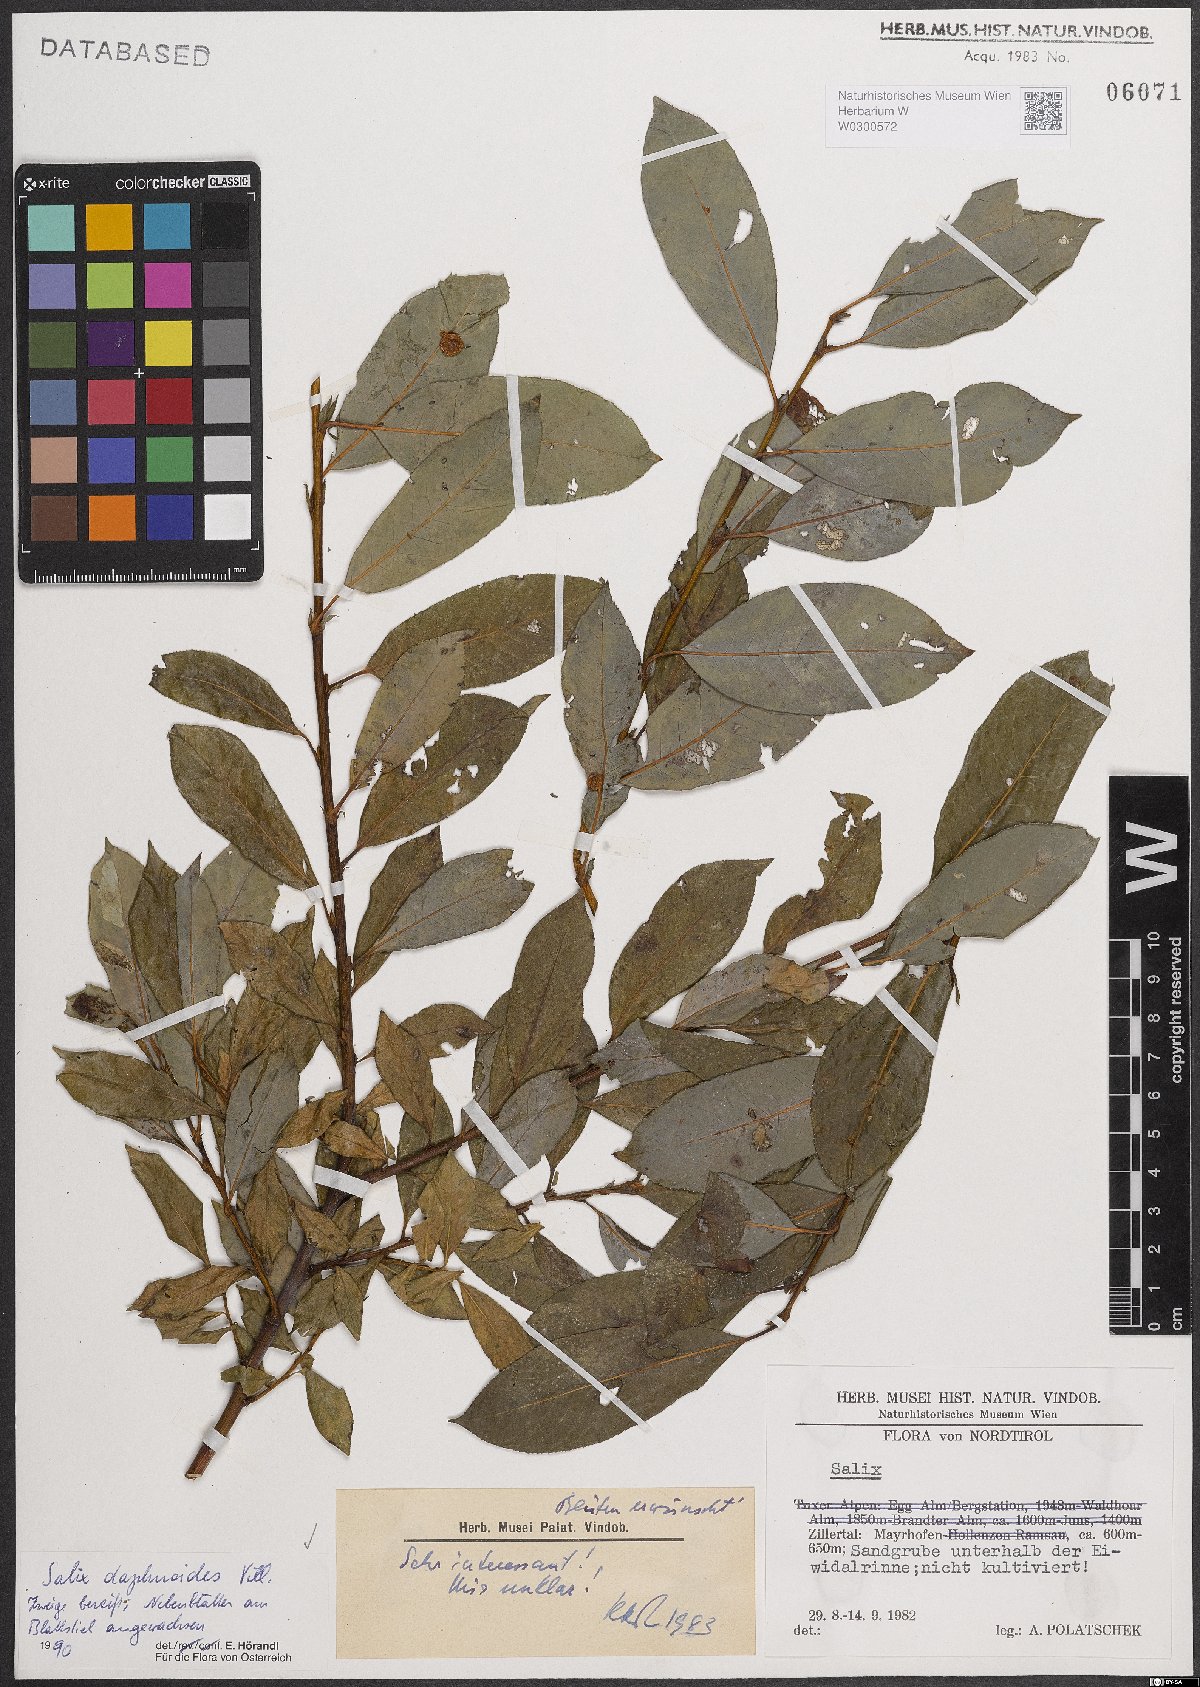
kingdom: Plantae
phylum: Tracheophyta
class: Magnoliopsida
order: Malpighiales
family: Salicaceae
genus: Salix
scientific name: Salix daphnoides
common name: European violet-willow
